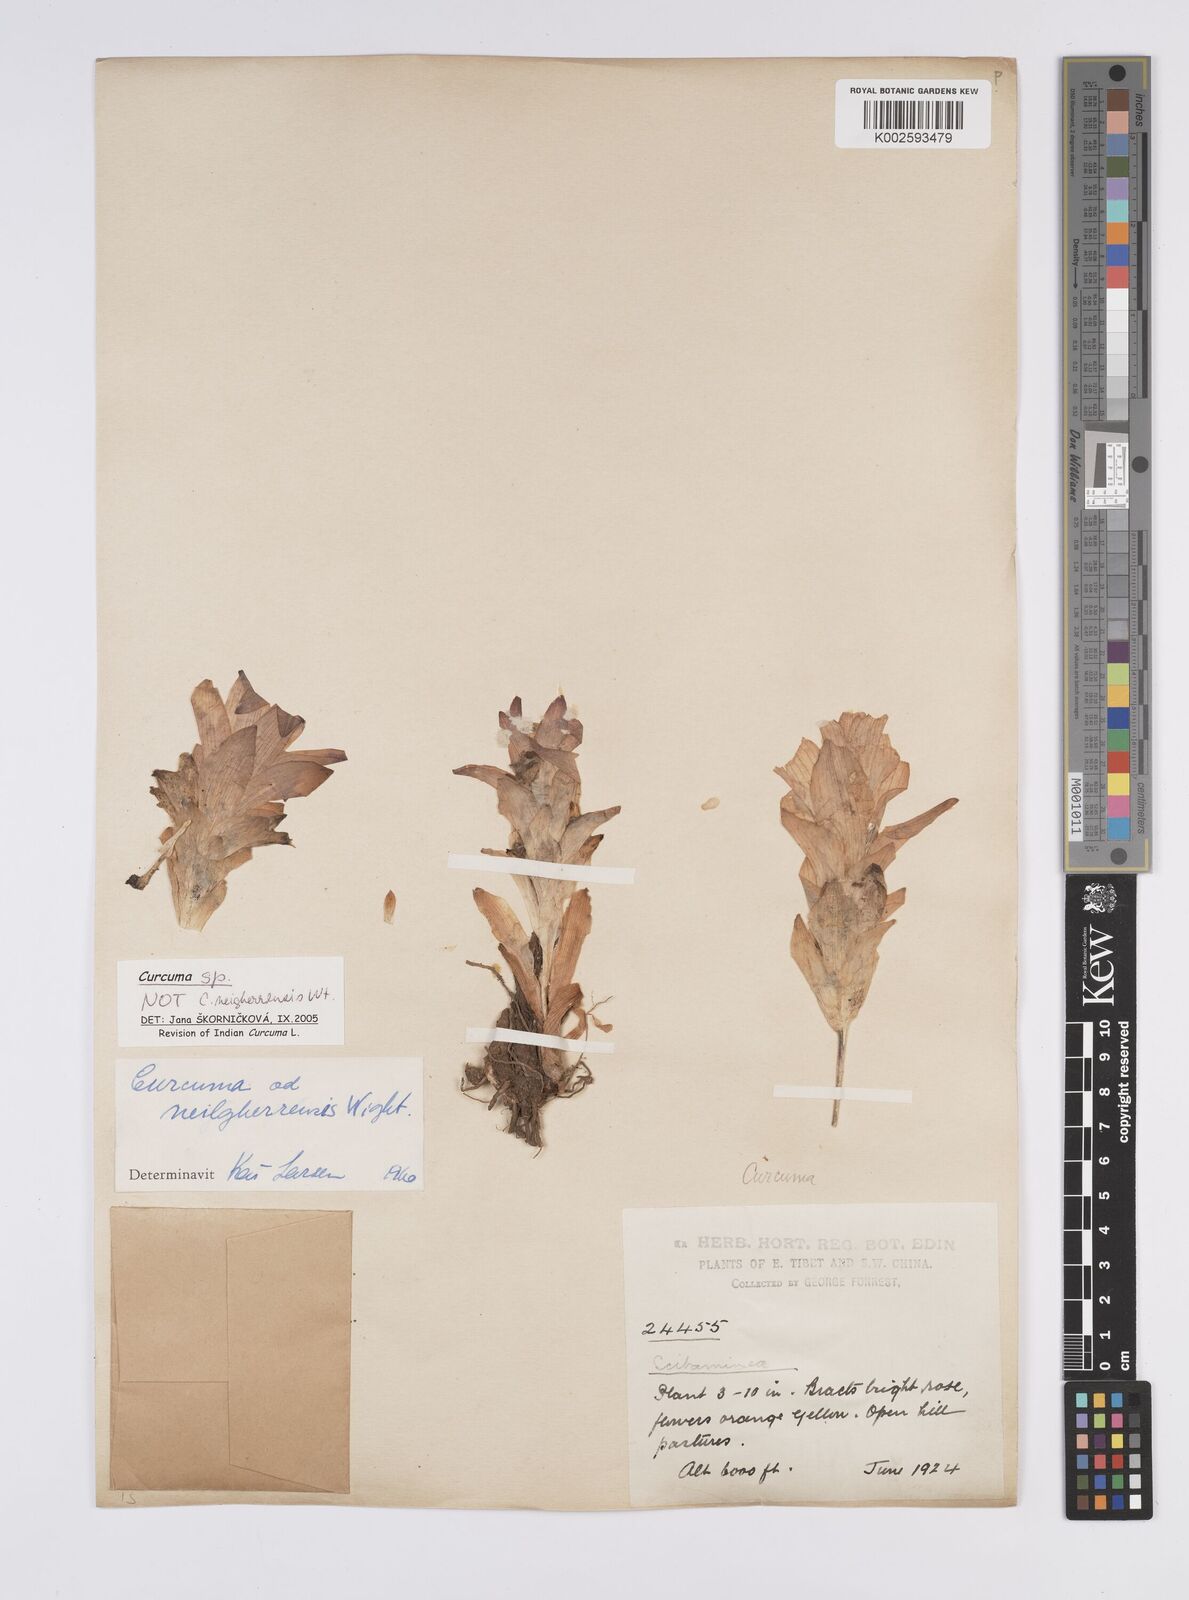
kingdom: Plantae
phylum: Tracheophyta
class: Liliopsida
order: Zingiberales
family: Zingiberaceae
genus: Curcuma
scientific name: Curcuma
